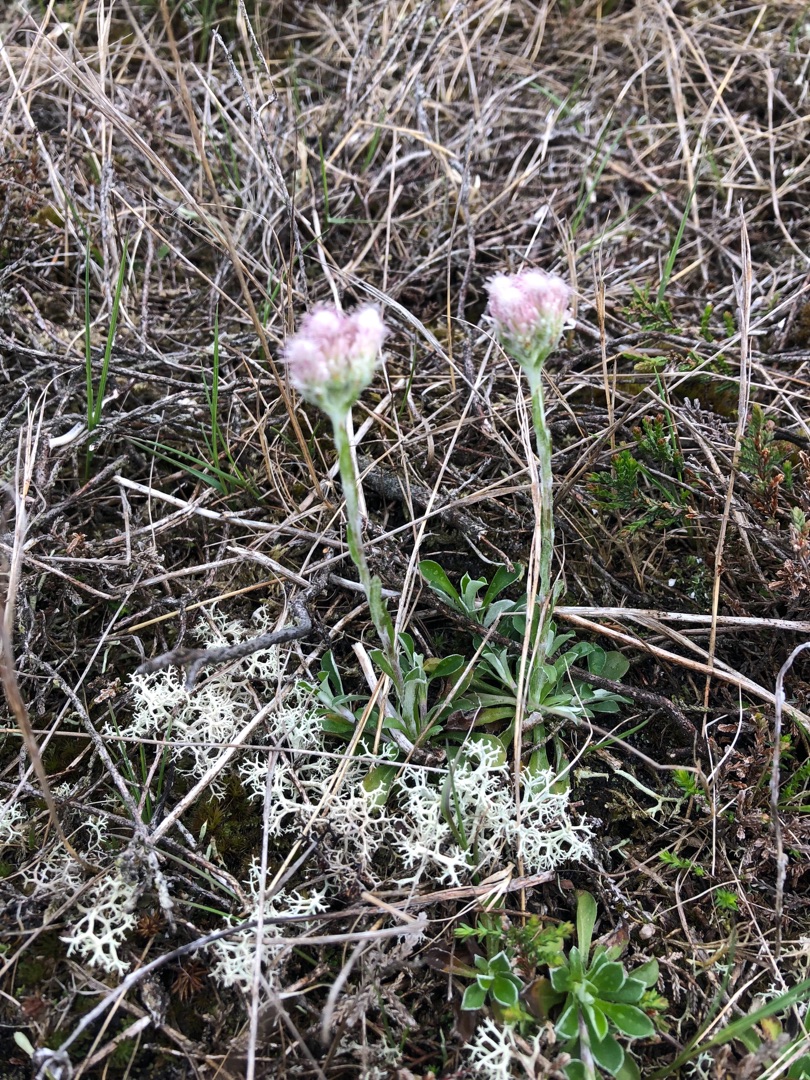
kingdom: Plantae
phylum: Tracheophyta
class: Magnoliopsida
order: Asterales
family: Asteraceae
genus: Antennaria
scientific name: Antennaria dioica
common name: Kattefod
